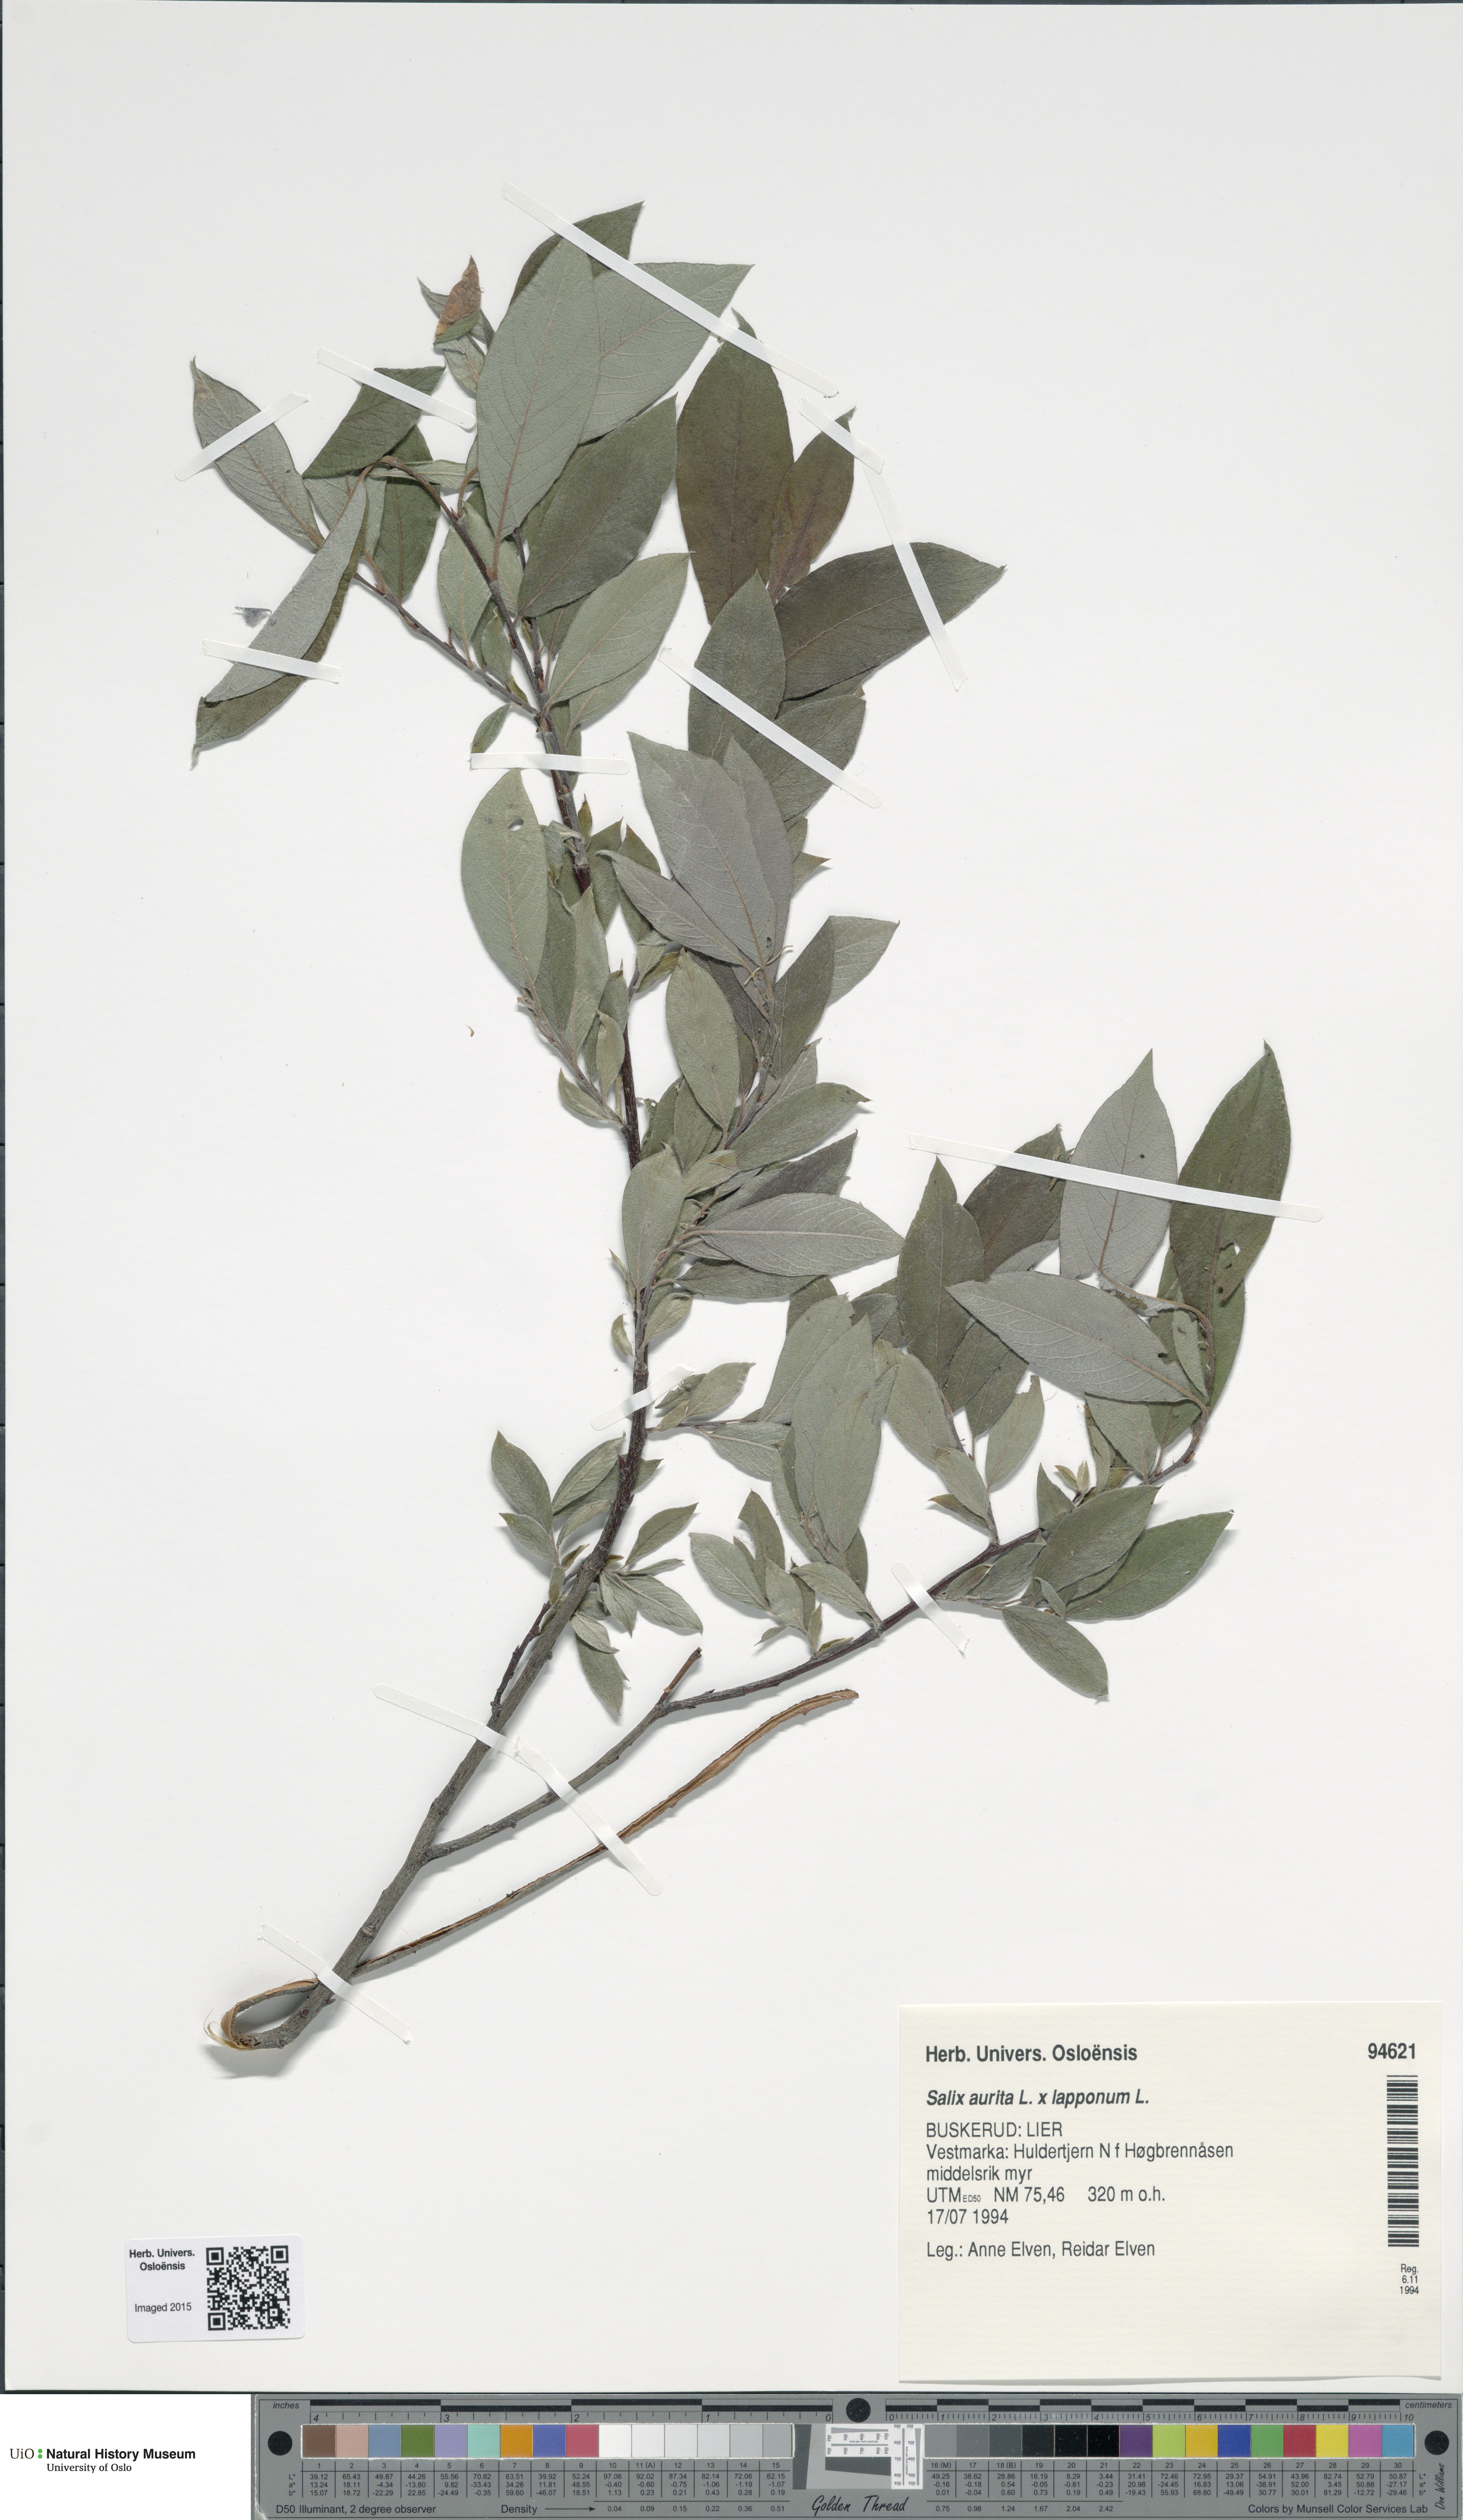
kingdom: Plantae
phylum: Tracheophyta
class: Magnoliopsida
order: Malpighiales
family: Salicaceae
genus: Salix
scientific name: Salix
